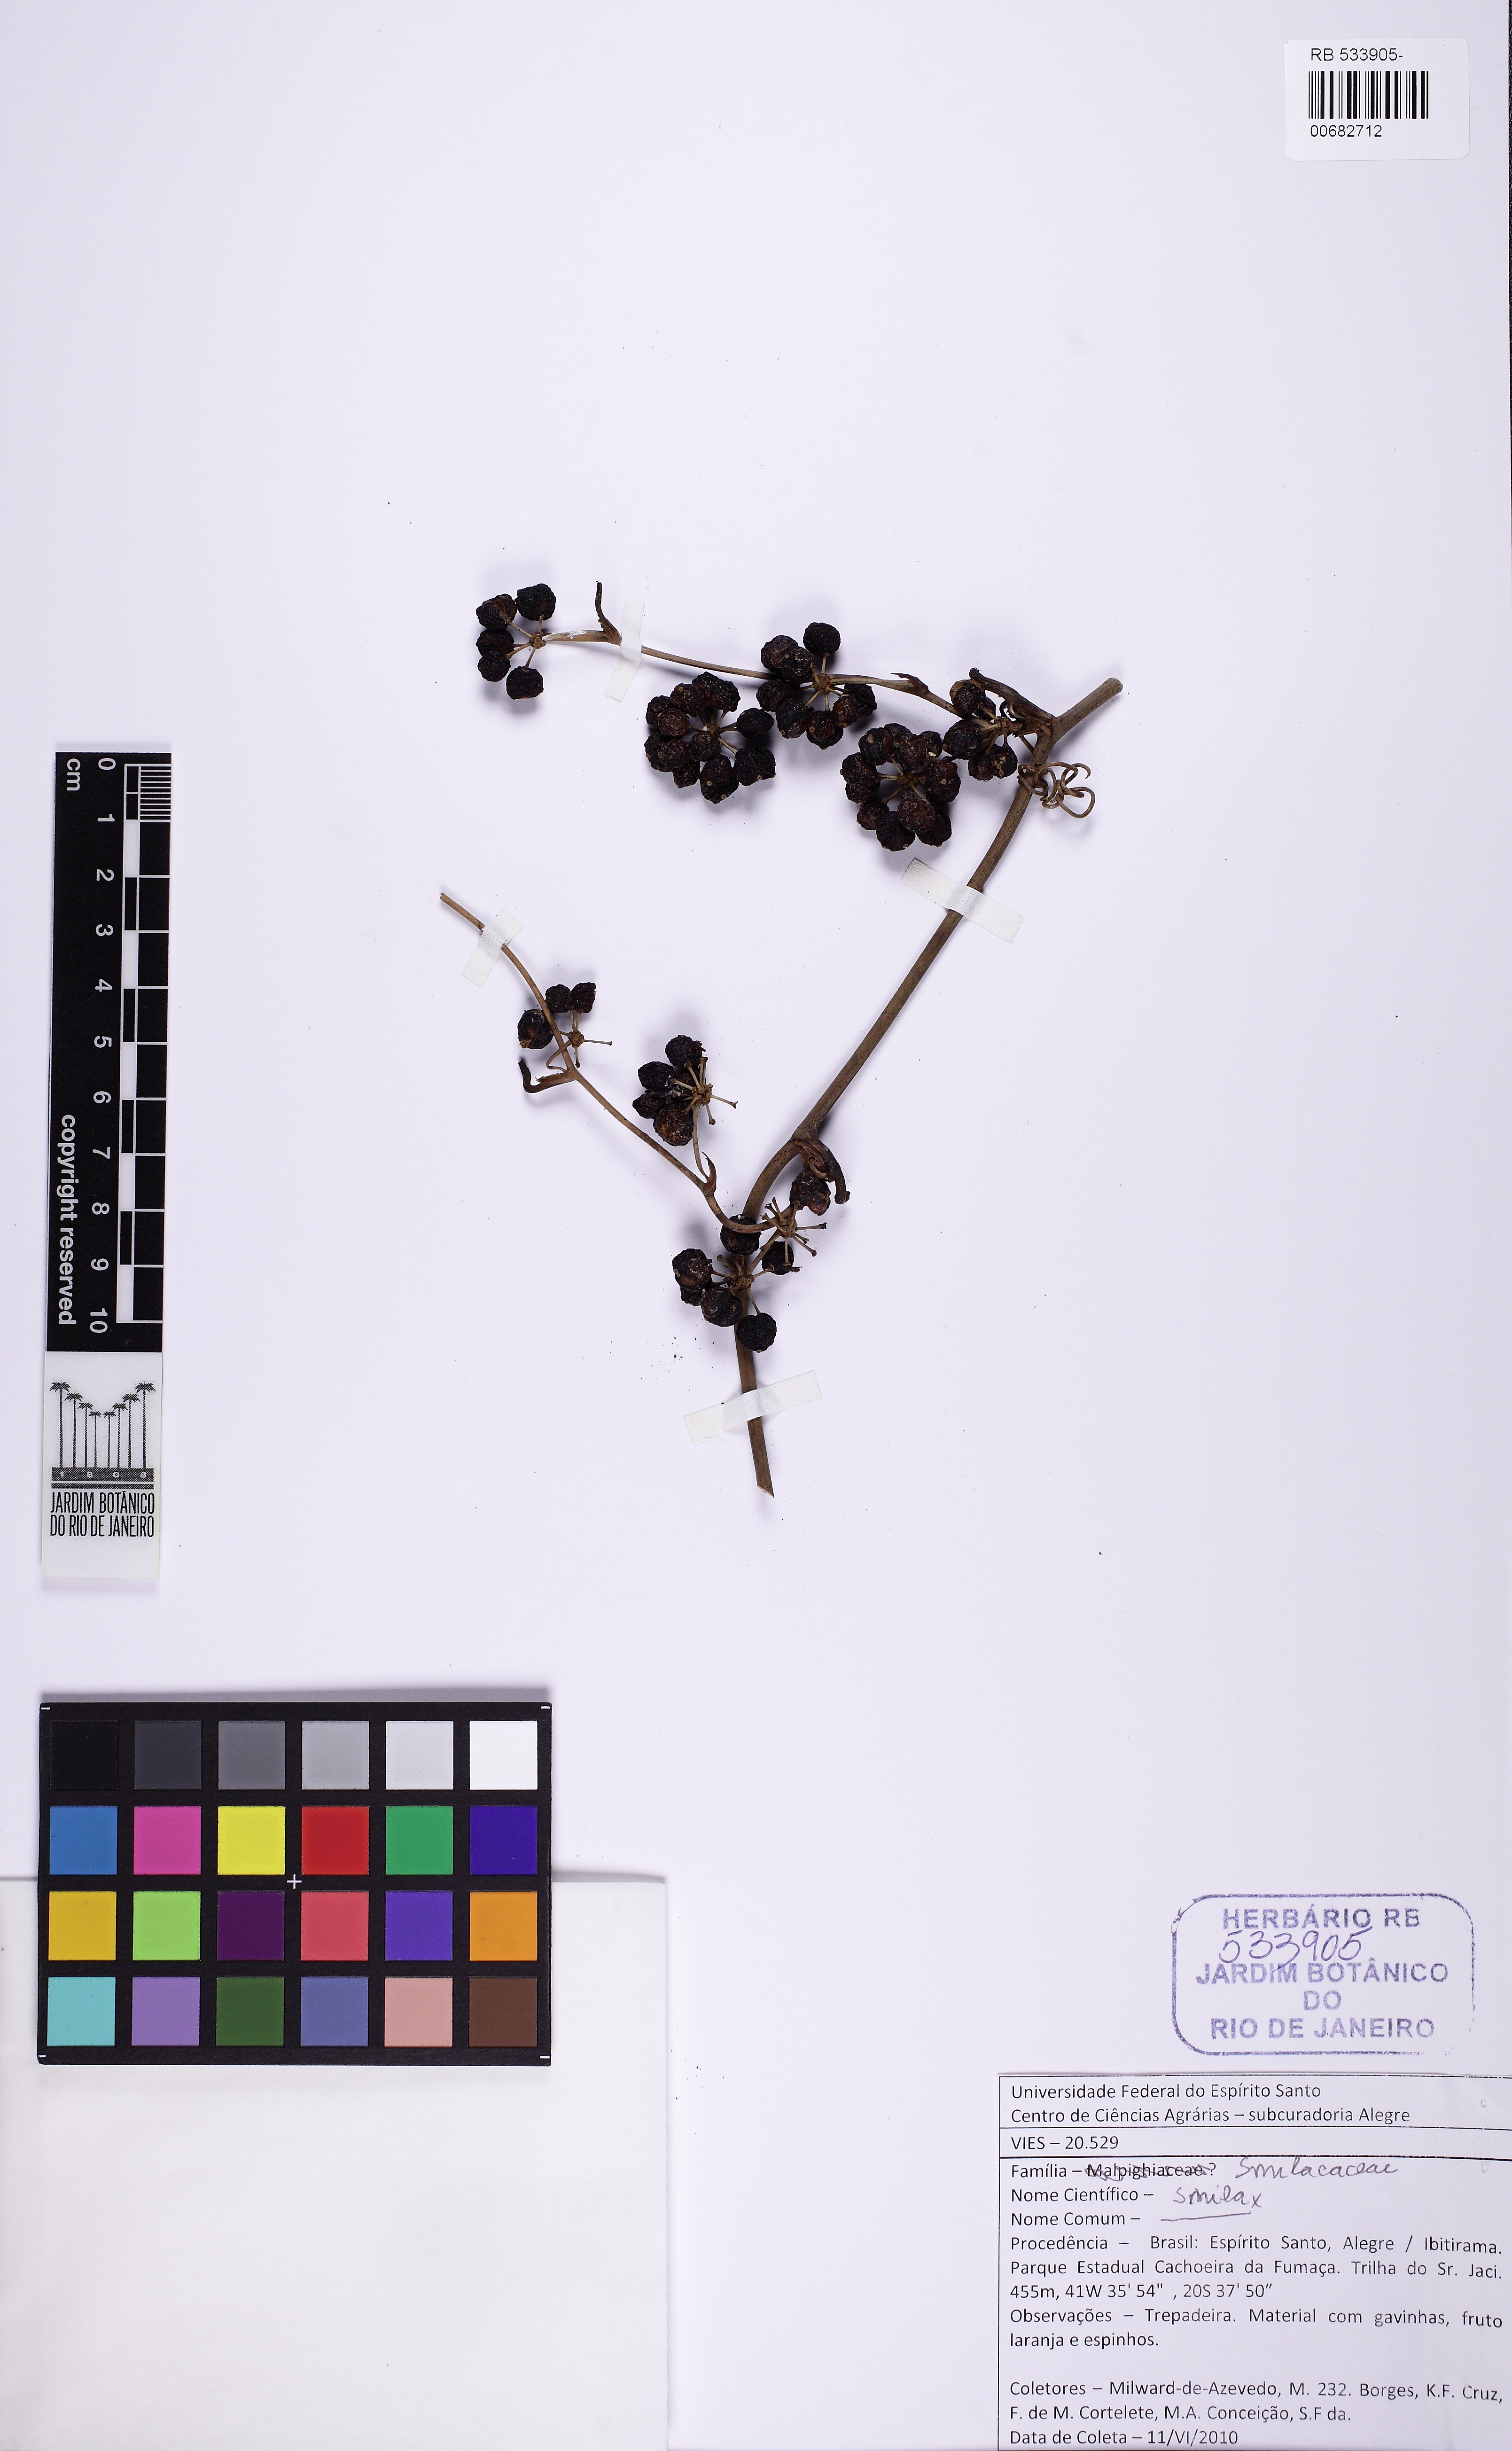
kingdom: Plantae
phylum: Tracheophyta
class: Liliopsida
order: Liliales
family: Smilacaceae
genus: Smilax
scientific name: Smilax
